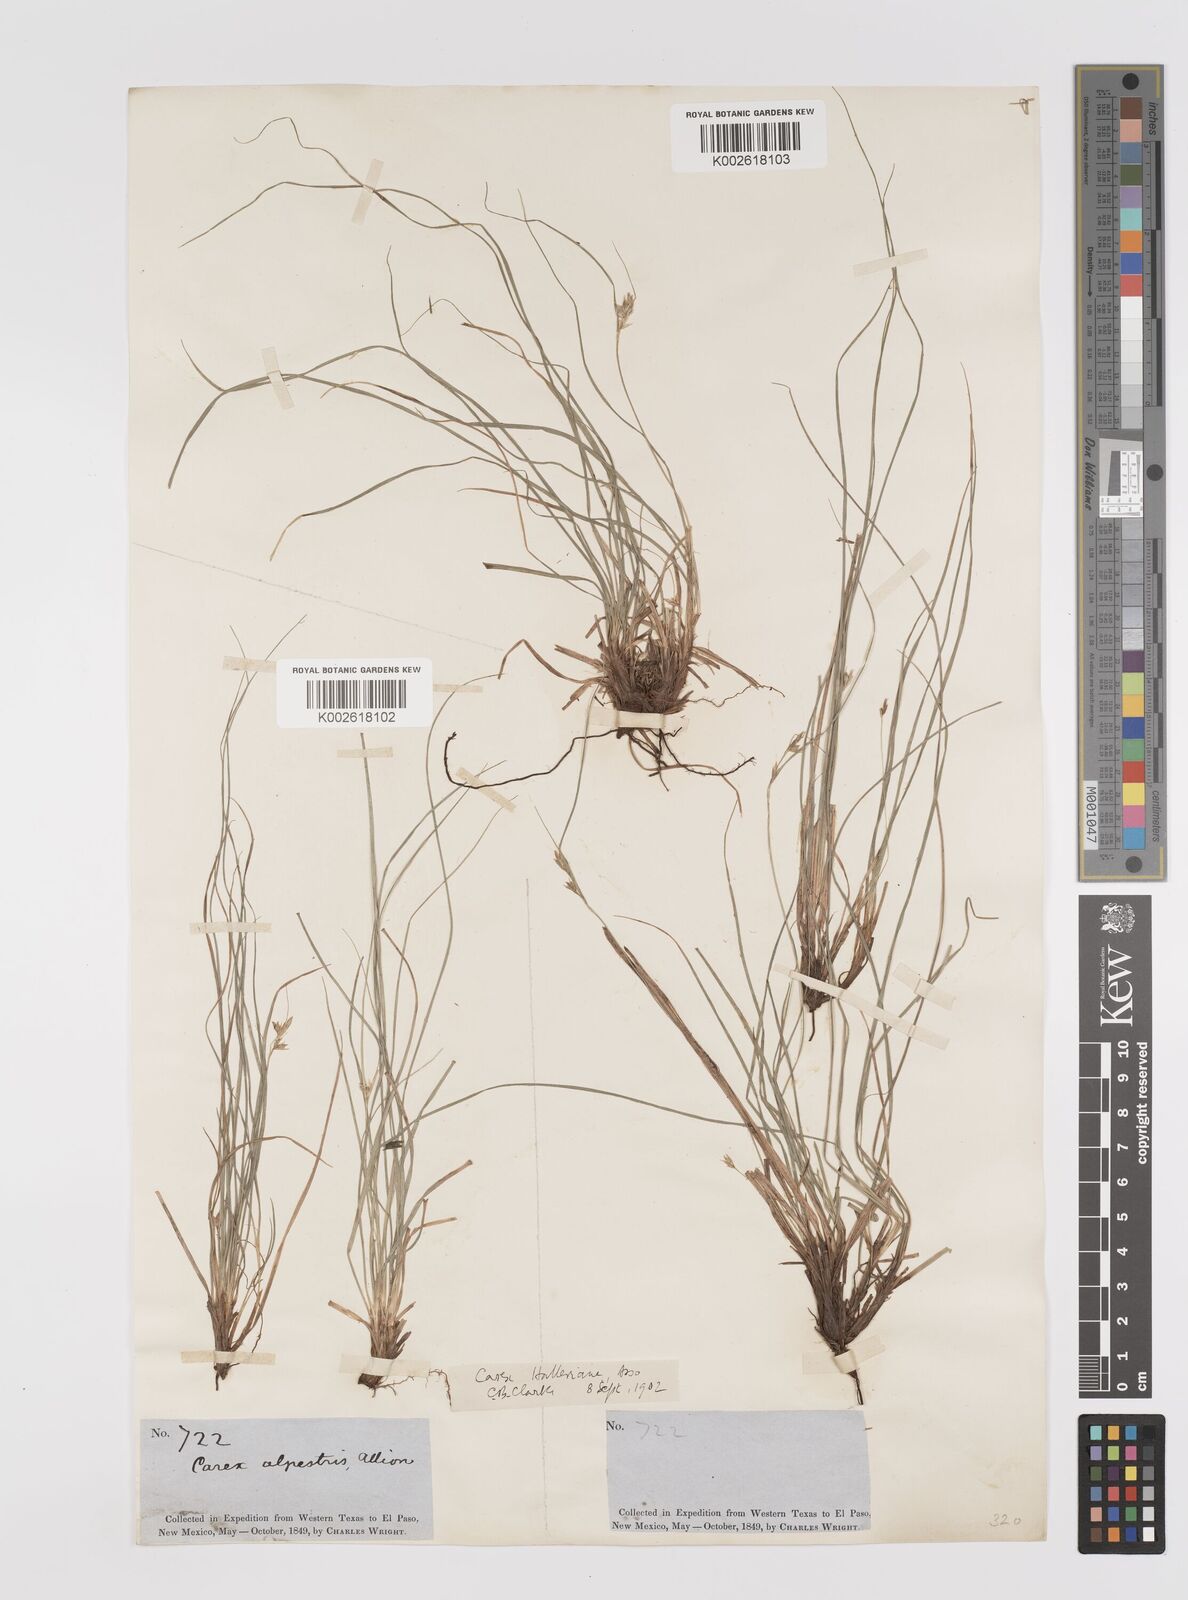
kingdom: Plantae
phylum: Tracheophyta
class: Liliopsida
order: Poales
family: Cyperaceae
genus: Carex
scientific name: Carex planostachys
